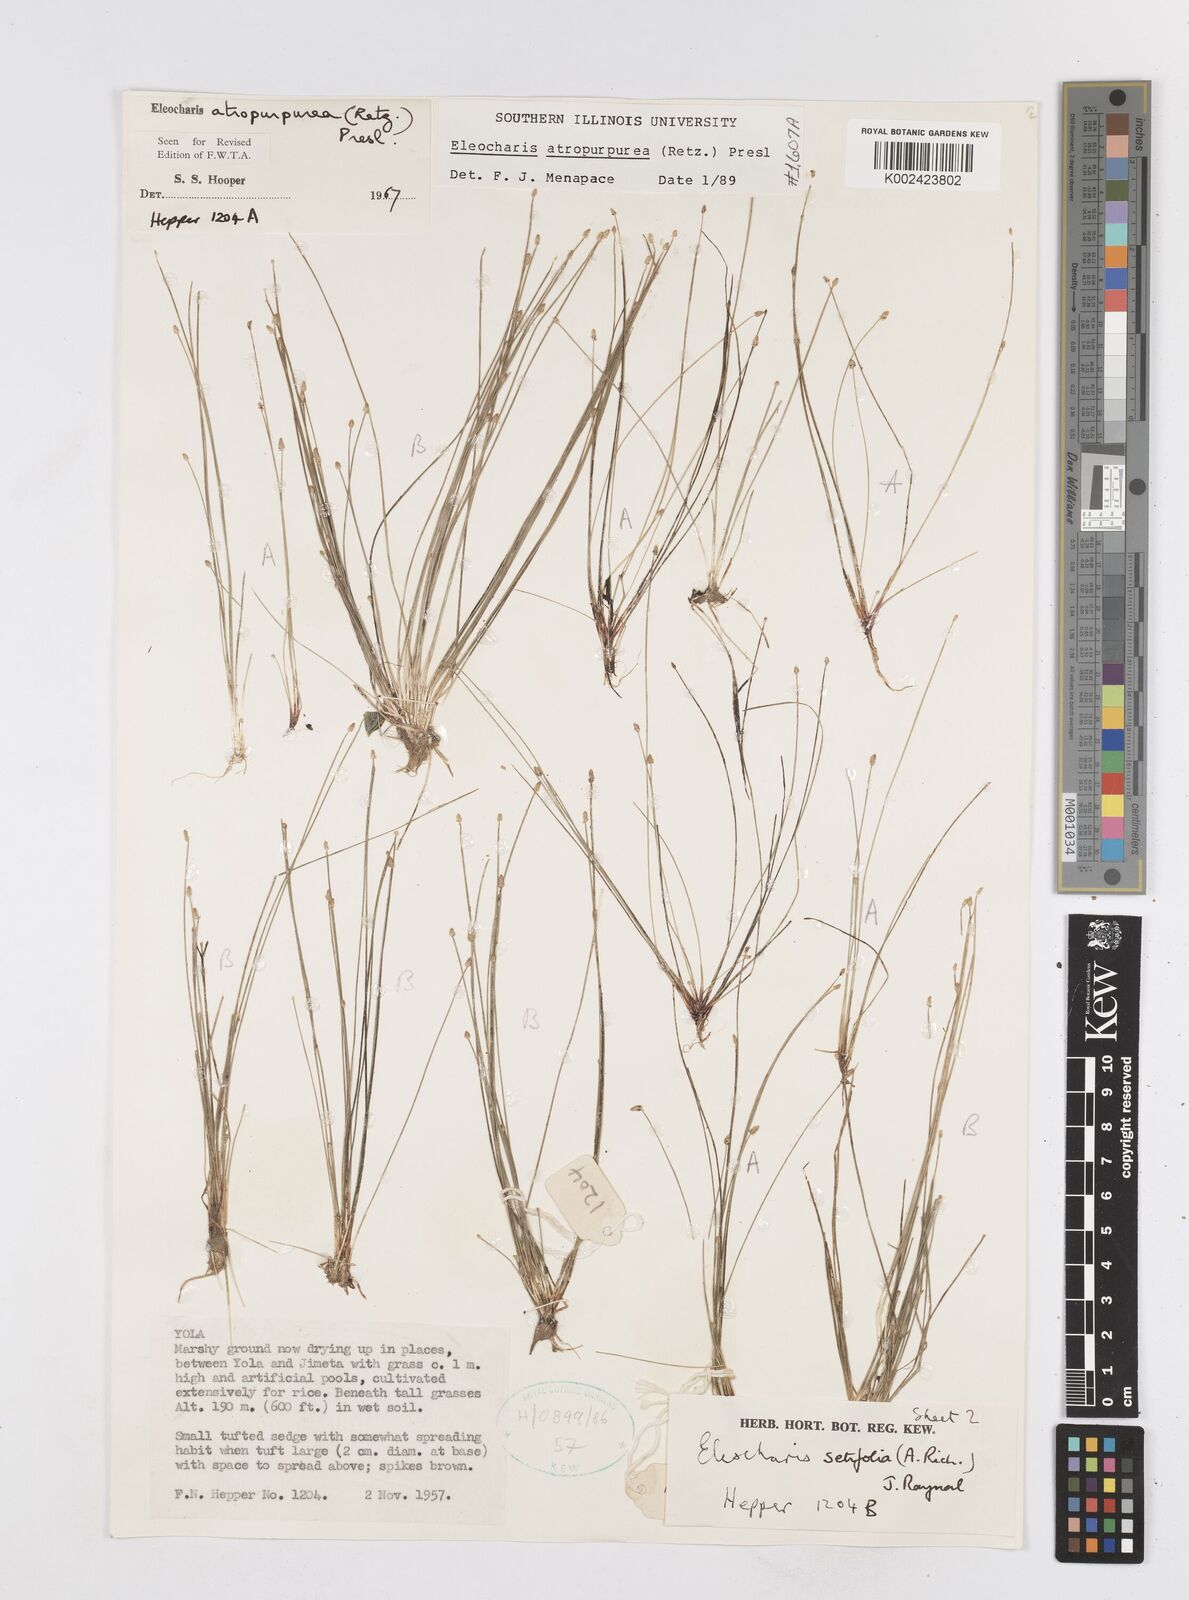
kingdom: Plantae
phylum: Tracheophyta
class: Liliopsida
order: Poales
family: Cyperaceae
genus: Eleocharis
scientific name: Eleocharis atropurpurea
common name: Purple spikerush
